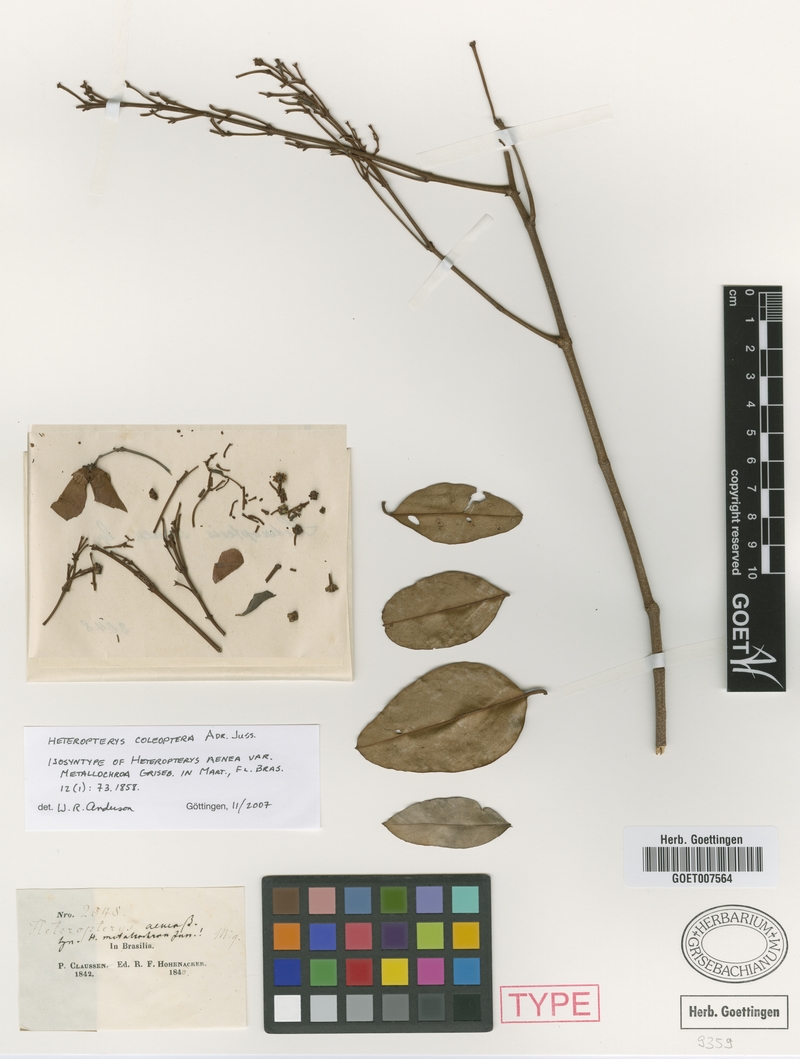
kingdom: Plantae
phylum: Tracheophyta
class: Magnoliopsida
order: Malpighiales
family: Malpighiaceae
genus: Heteropterys
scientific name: Heteropterys coleoptera
